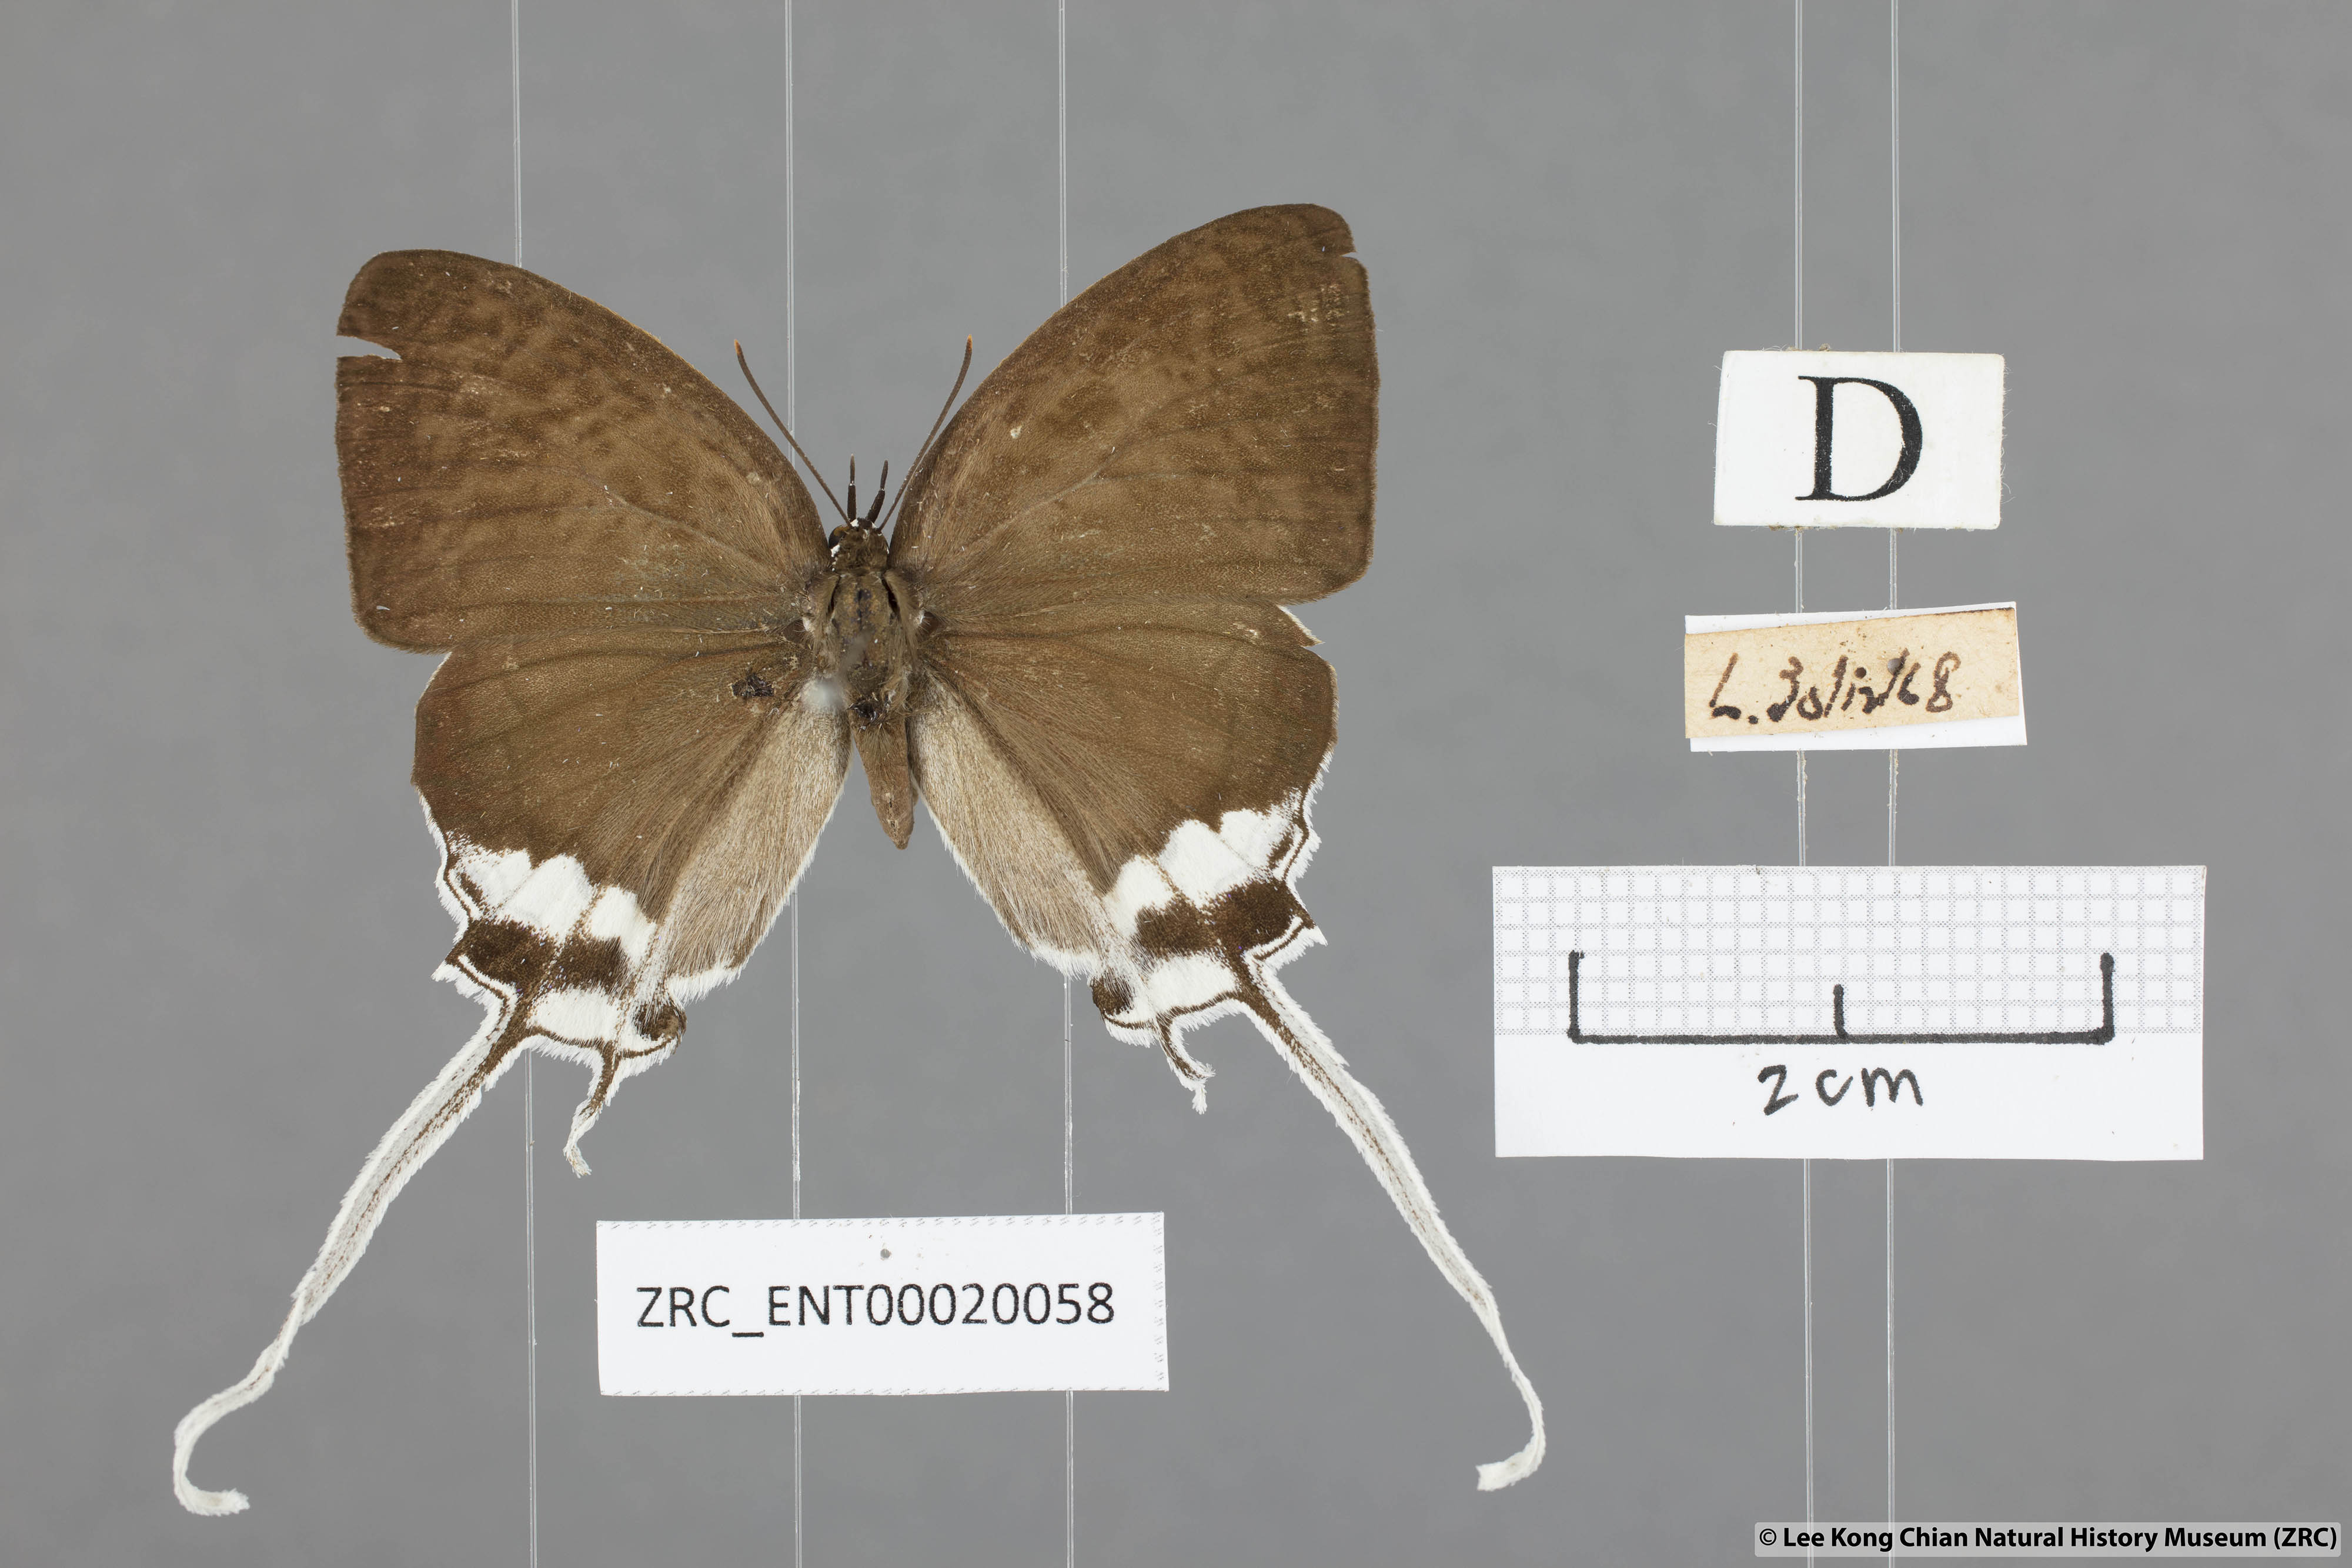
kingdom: Animalia
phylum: Arthropoda
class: Insecta
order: Lepidoptera
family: Lycaenidae
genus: Cheritra
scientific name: Cheritra freja
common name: Common imperial
